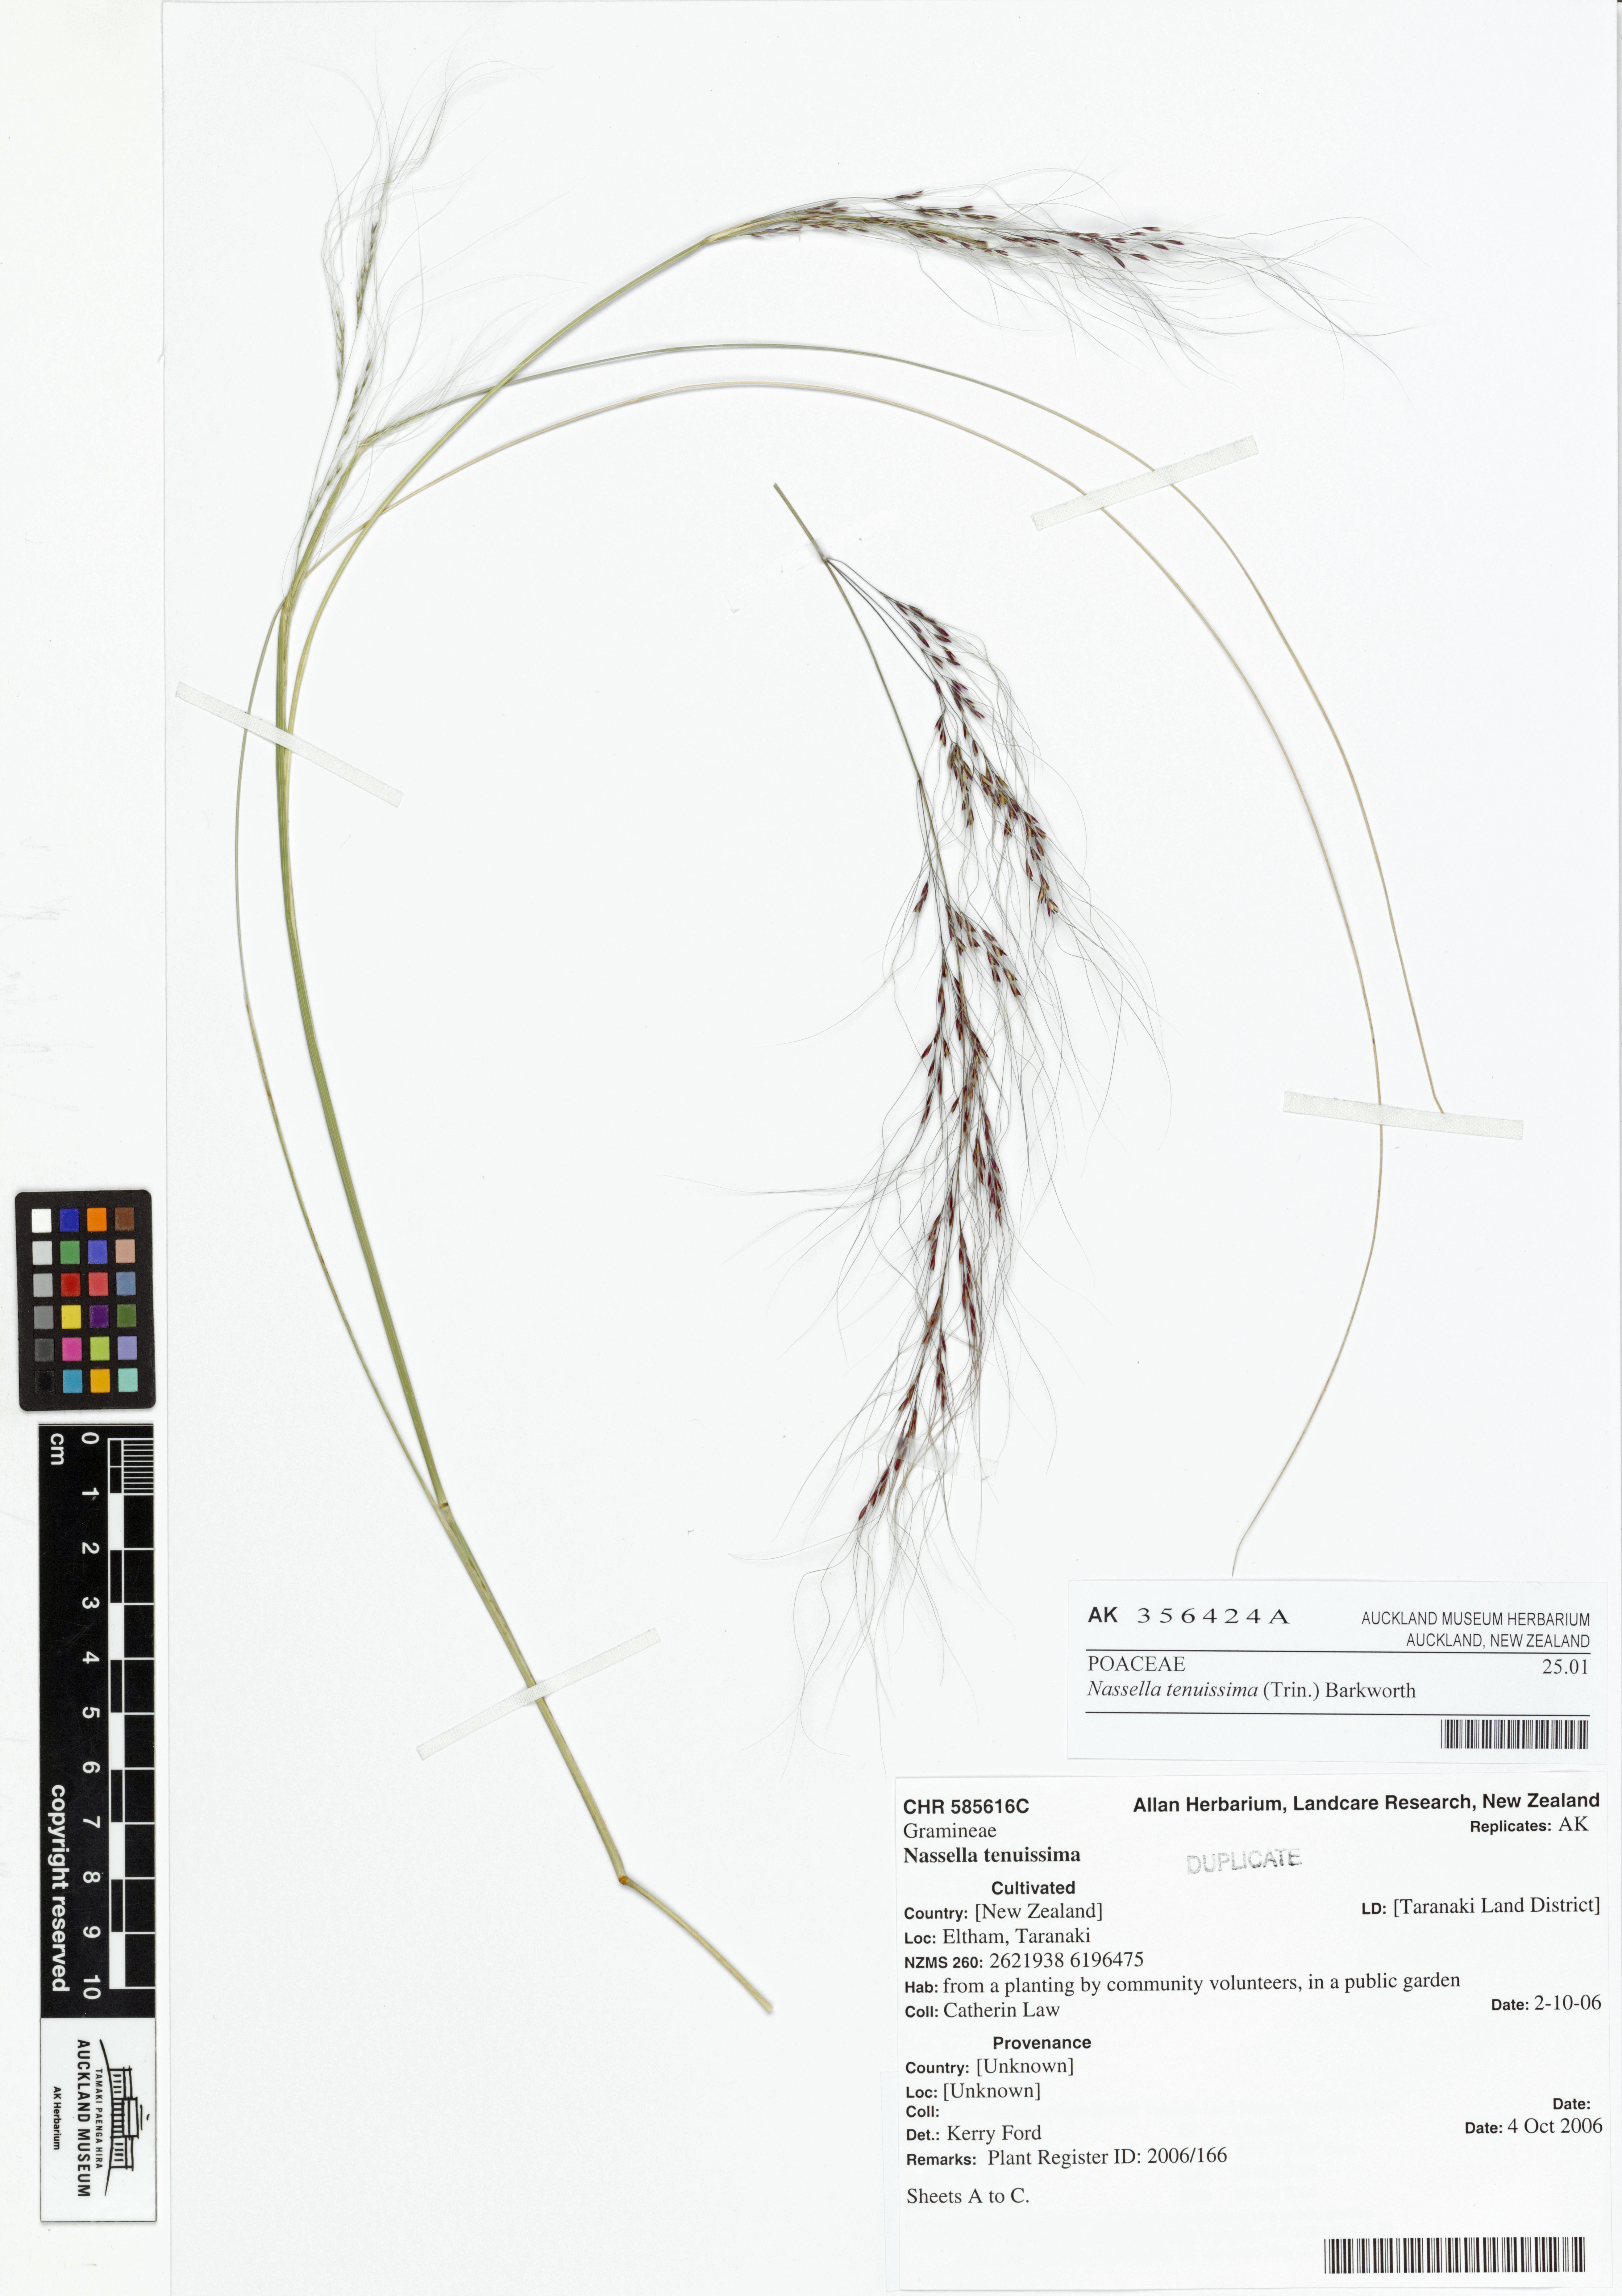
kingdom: Plantae
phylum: Tracheophyta
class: Liliopsida
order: Poales
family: Poaceae
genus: Nassella
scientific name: Nassella tenuissima
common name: Argentine needlegrass
